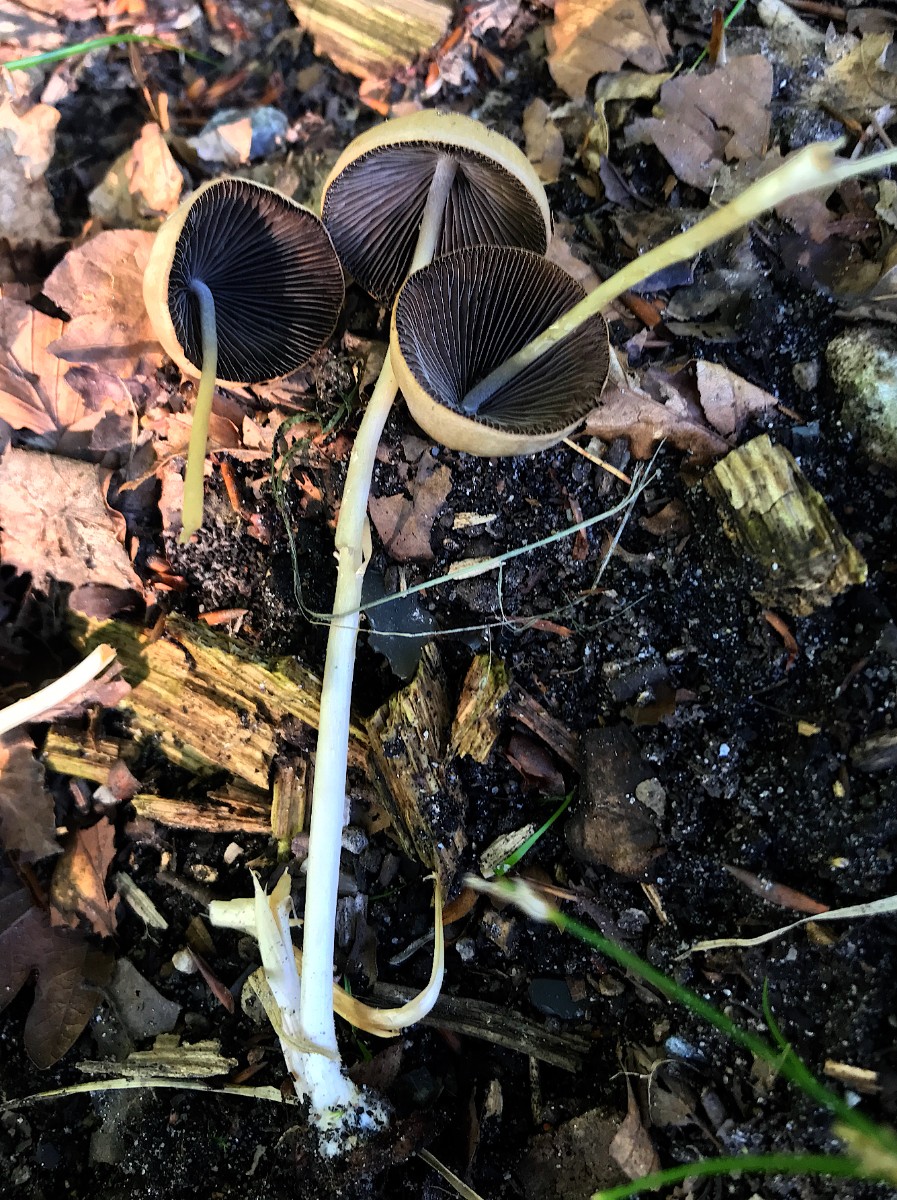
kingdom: Fungi
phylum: Basidiomycota
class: Agaricomycetes
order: Agaricales
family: Psathyrellaceae
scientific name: Psathyrellaceae
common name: mørkhatfamilien
